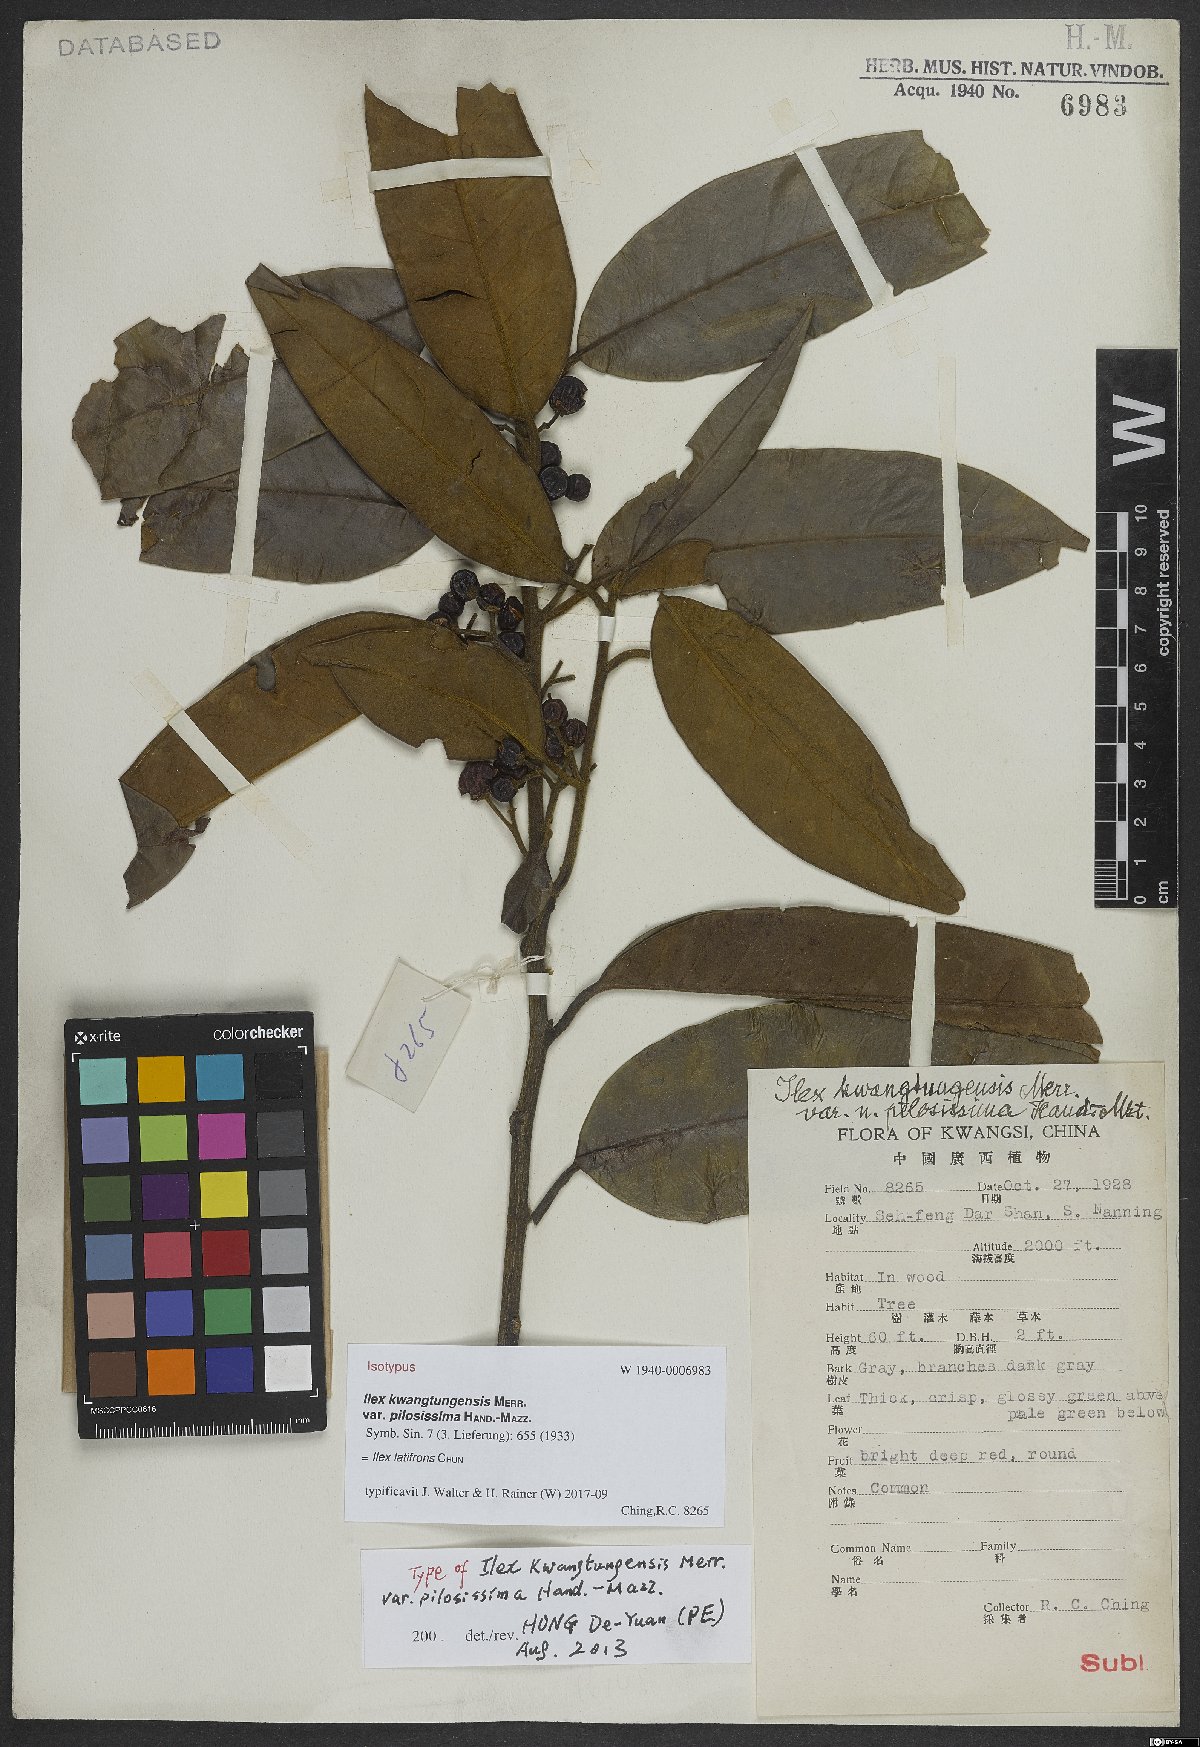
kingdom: Plantae
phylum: Tracheophyta
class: Magnoliopsida
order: Aquifoliales
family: Aquifoliaceae
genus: Ilex
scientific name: Ilex latifrons
